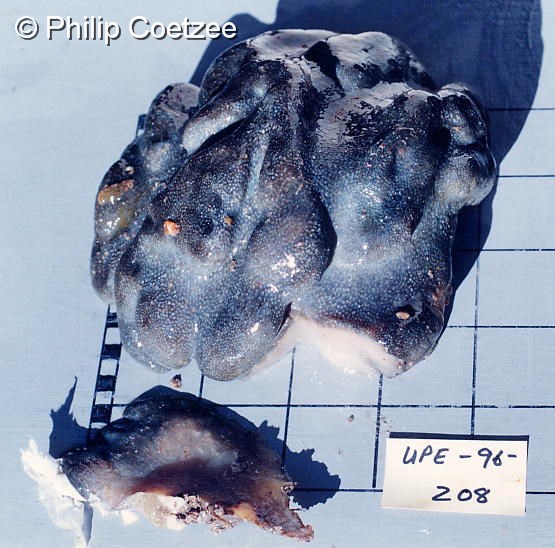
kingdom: Animalia
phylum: Chordata
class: Ascidiacea
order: Aplousobranchia
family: Pseudodistomidae
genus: Pseudodistoma
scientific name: Pseudodistoma
